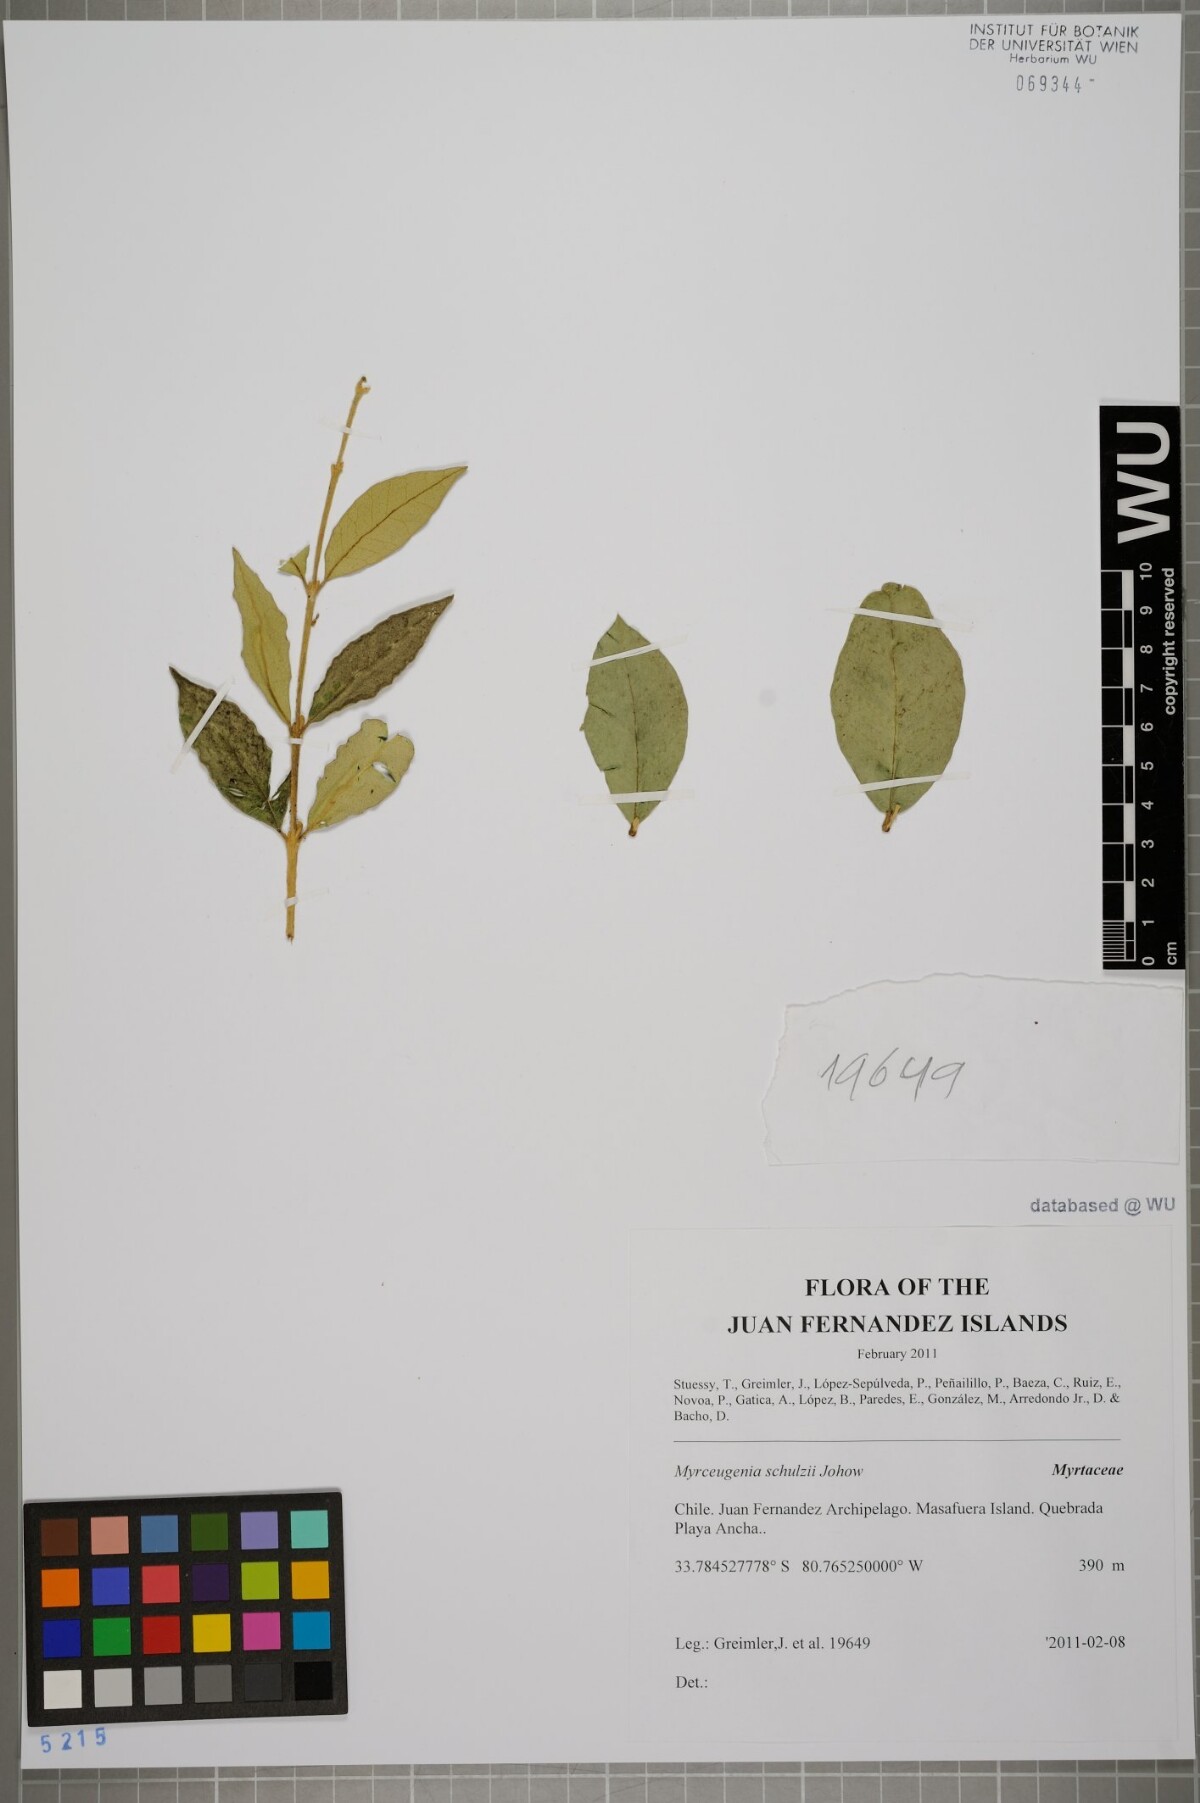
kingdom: Plantae
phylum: Tracheophyta
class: Magnoliopsida
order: Myrtales
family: Myrtaceae
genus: Myrceugenia
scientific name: Myrceugenia schulzei
